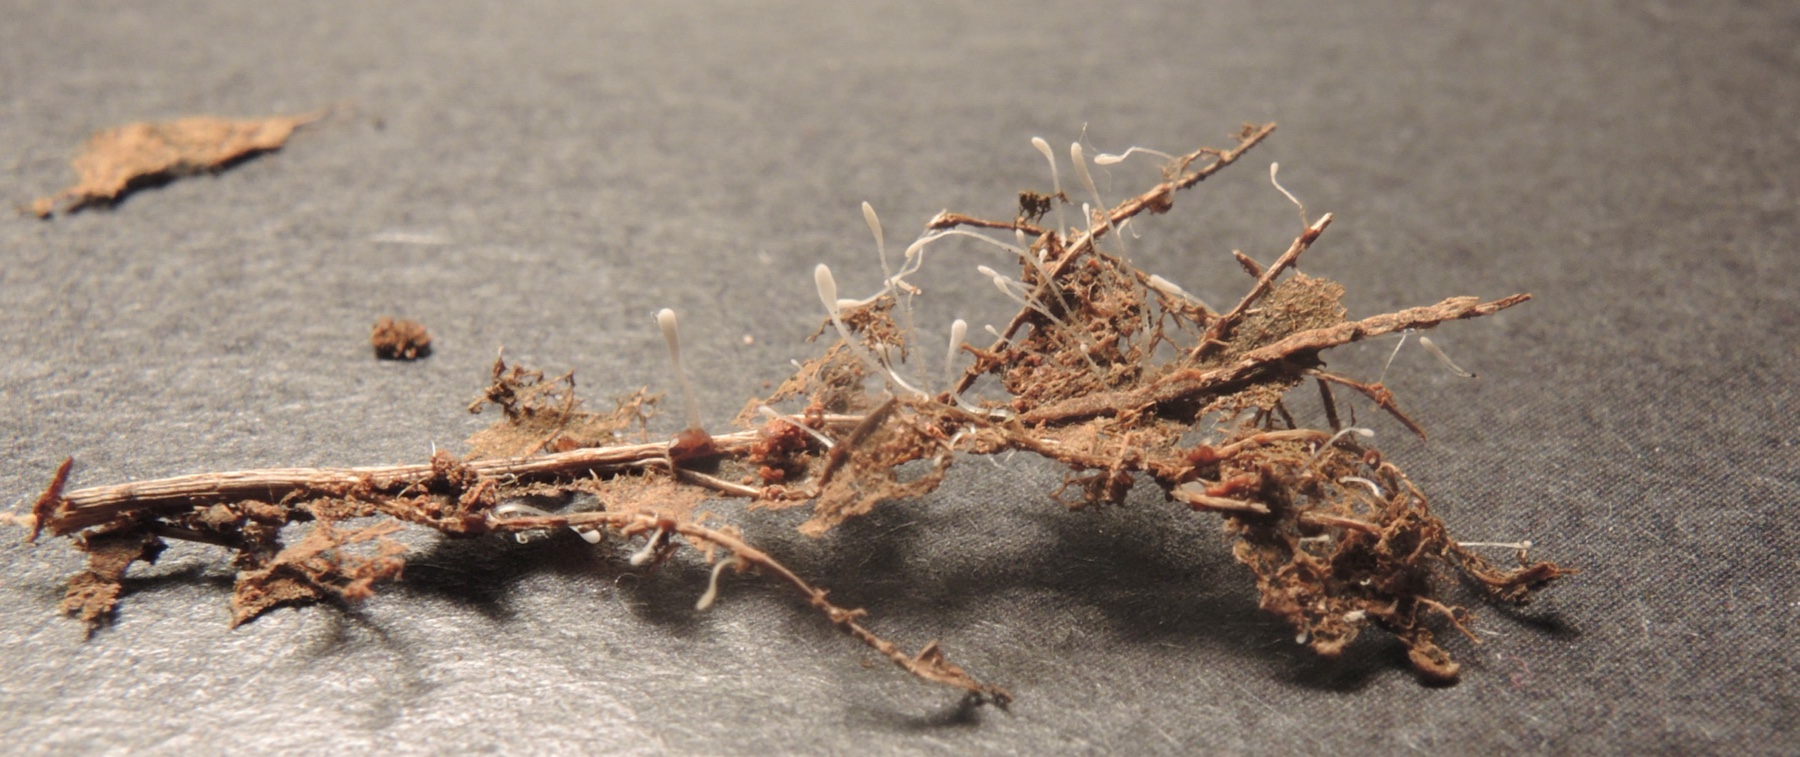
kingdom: Fungi
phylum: Basidiomycota
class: Agaricomycetes
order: Agaricales
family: Typhulaceae
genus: Typhula
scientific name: Typhula setipes
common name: liden trådkølle
